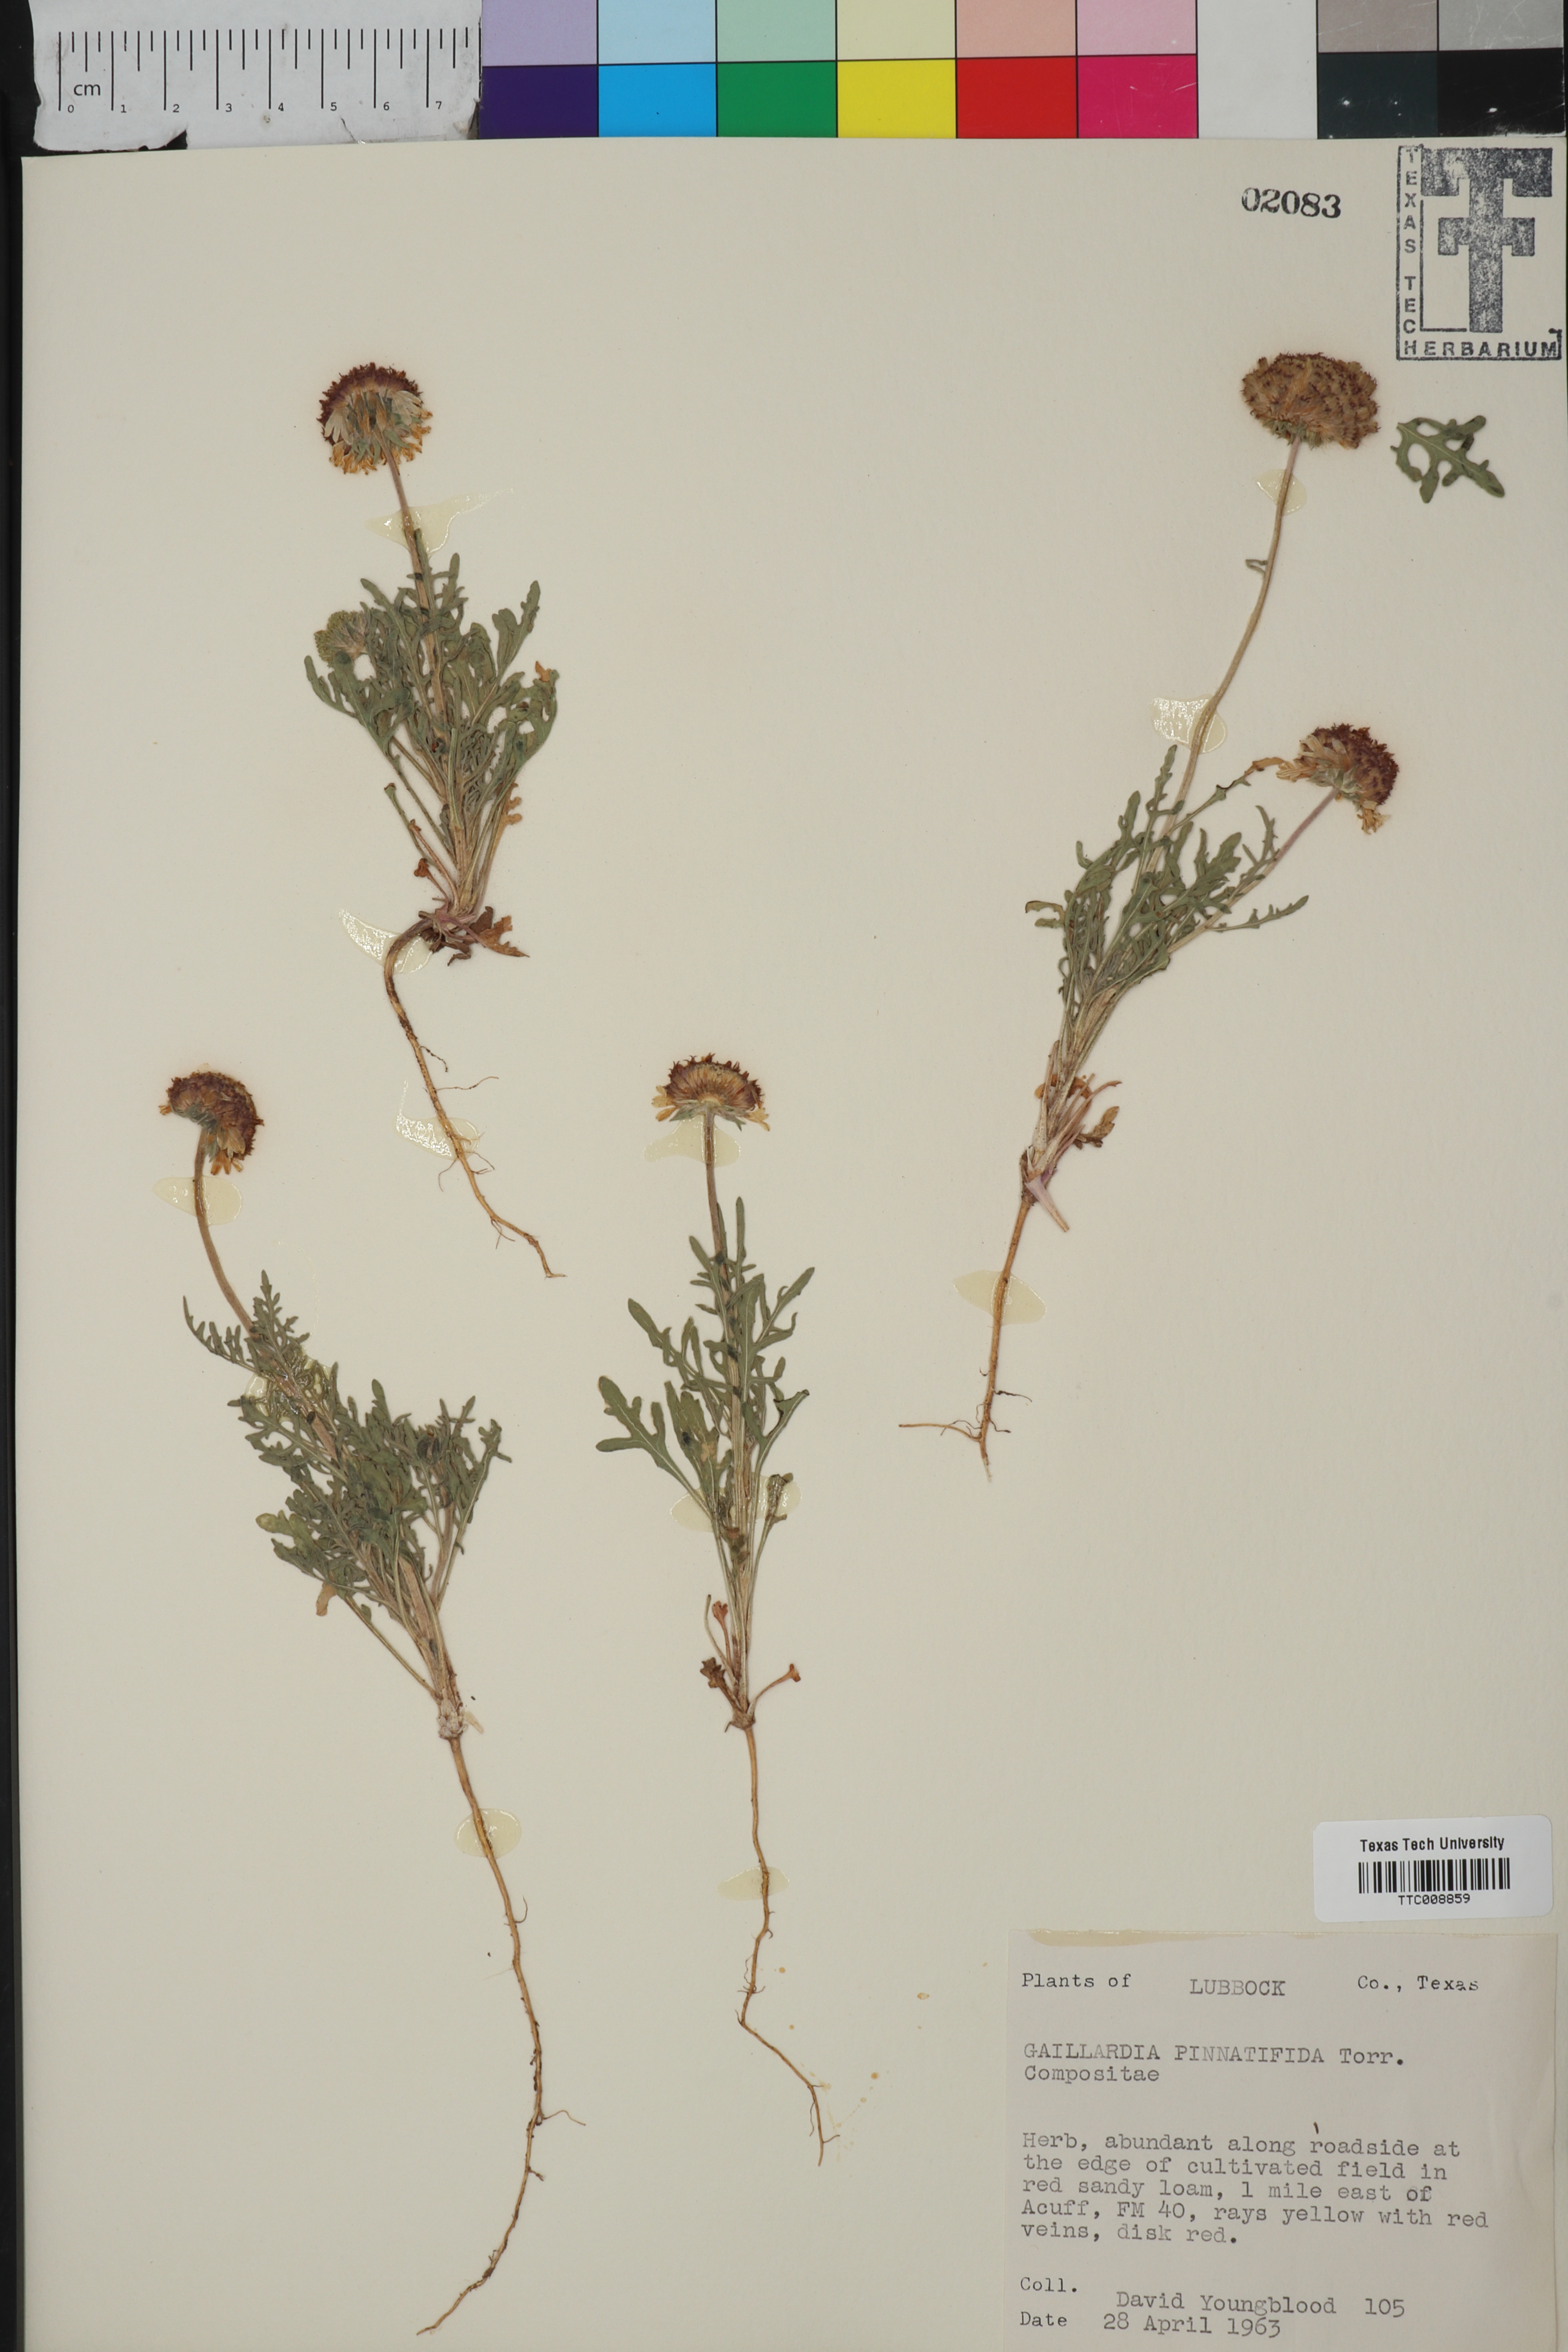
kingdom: Plantae
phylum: Tracheophyta
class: Magnoliopsida
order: Asterales
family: Asteraceae
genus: Gaillardia
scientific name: Gaillardia pinnatifida
